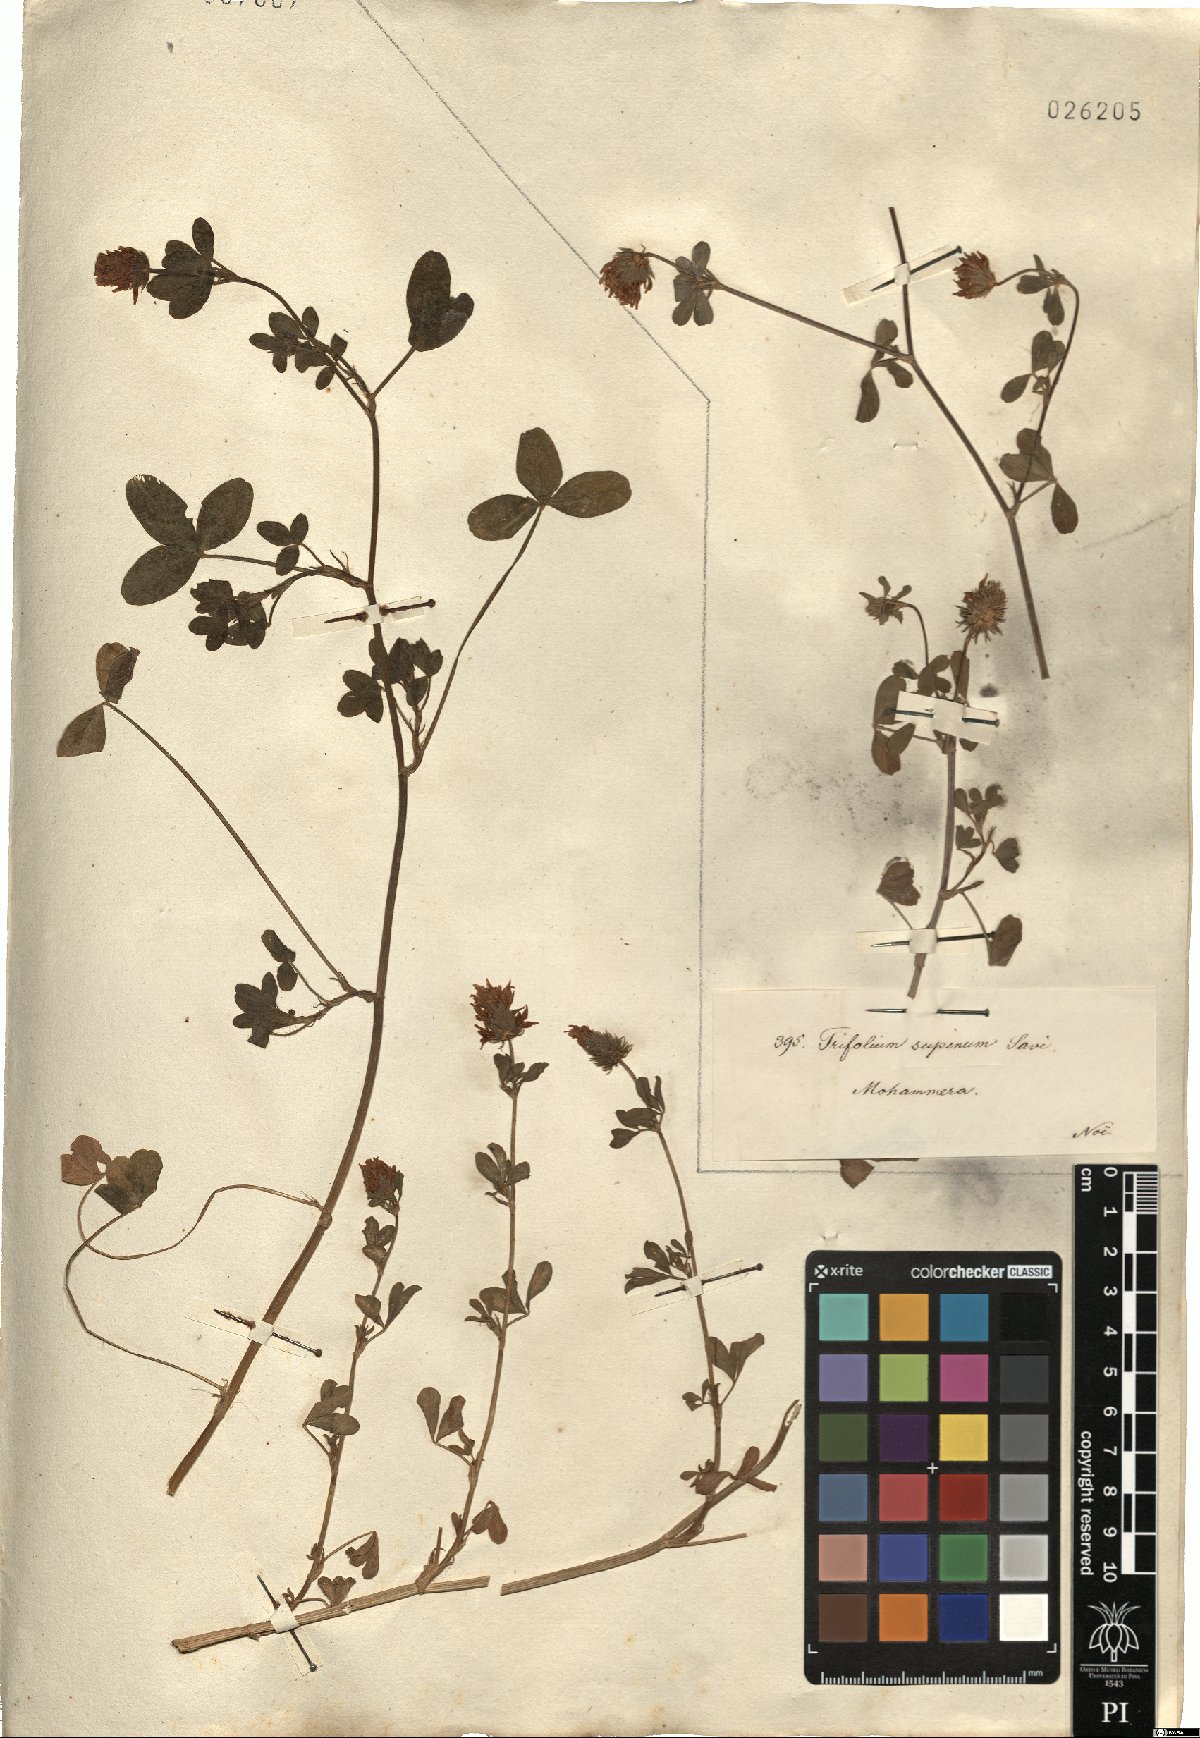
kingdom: Plantae
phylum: Tracheophyta
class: Magnoliopsida
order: Fabales
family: Fabaceae
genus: Trifolium
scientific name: Trifolium echinatum
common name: Hedgehog clover
